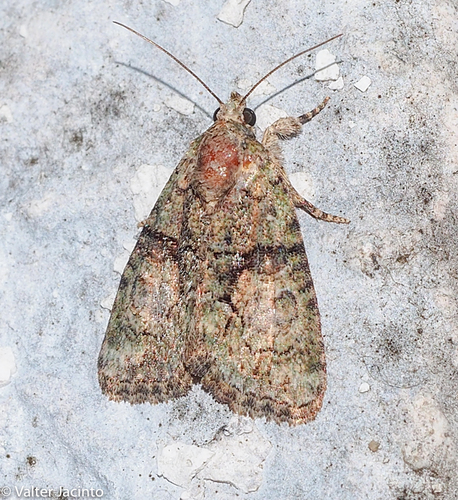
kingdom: Animalia
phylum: Arthropoda
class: Insecta
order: Lepidoptera
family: Noctuidae
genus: Cryphia
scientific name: Cryphia algae
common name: Tree-lichen beauty
